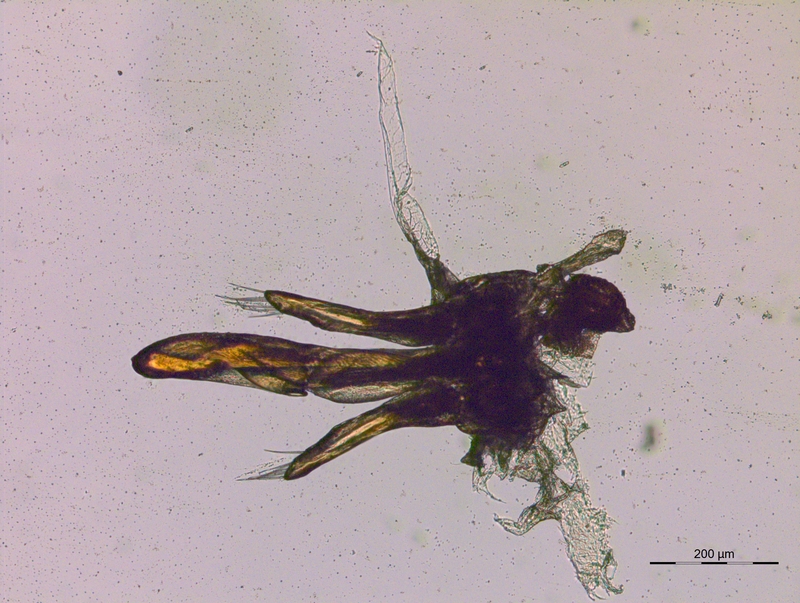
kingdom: Animalia
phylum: Arthropoda
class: Diplopoda
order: Julida
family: Blaniulidae
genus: Blaniulus
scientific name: Blaniulus guttulatus
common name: Spotted snake millipede
